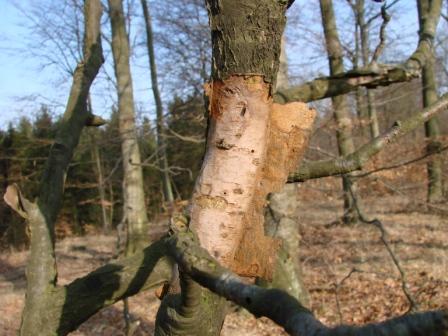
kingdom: Fungi
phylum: Basidiomycota
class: Agaricomycetes
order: Corticiales
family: Vuilleminiaceae
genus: Vuilleminia
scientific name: Vuilleminia comedens
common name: almindelig barksprænger
